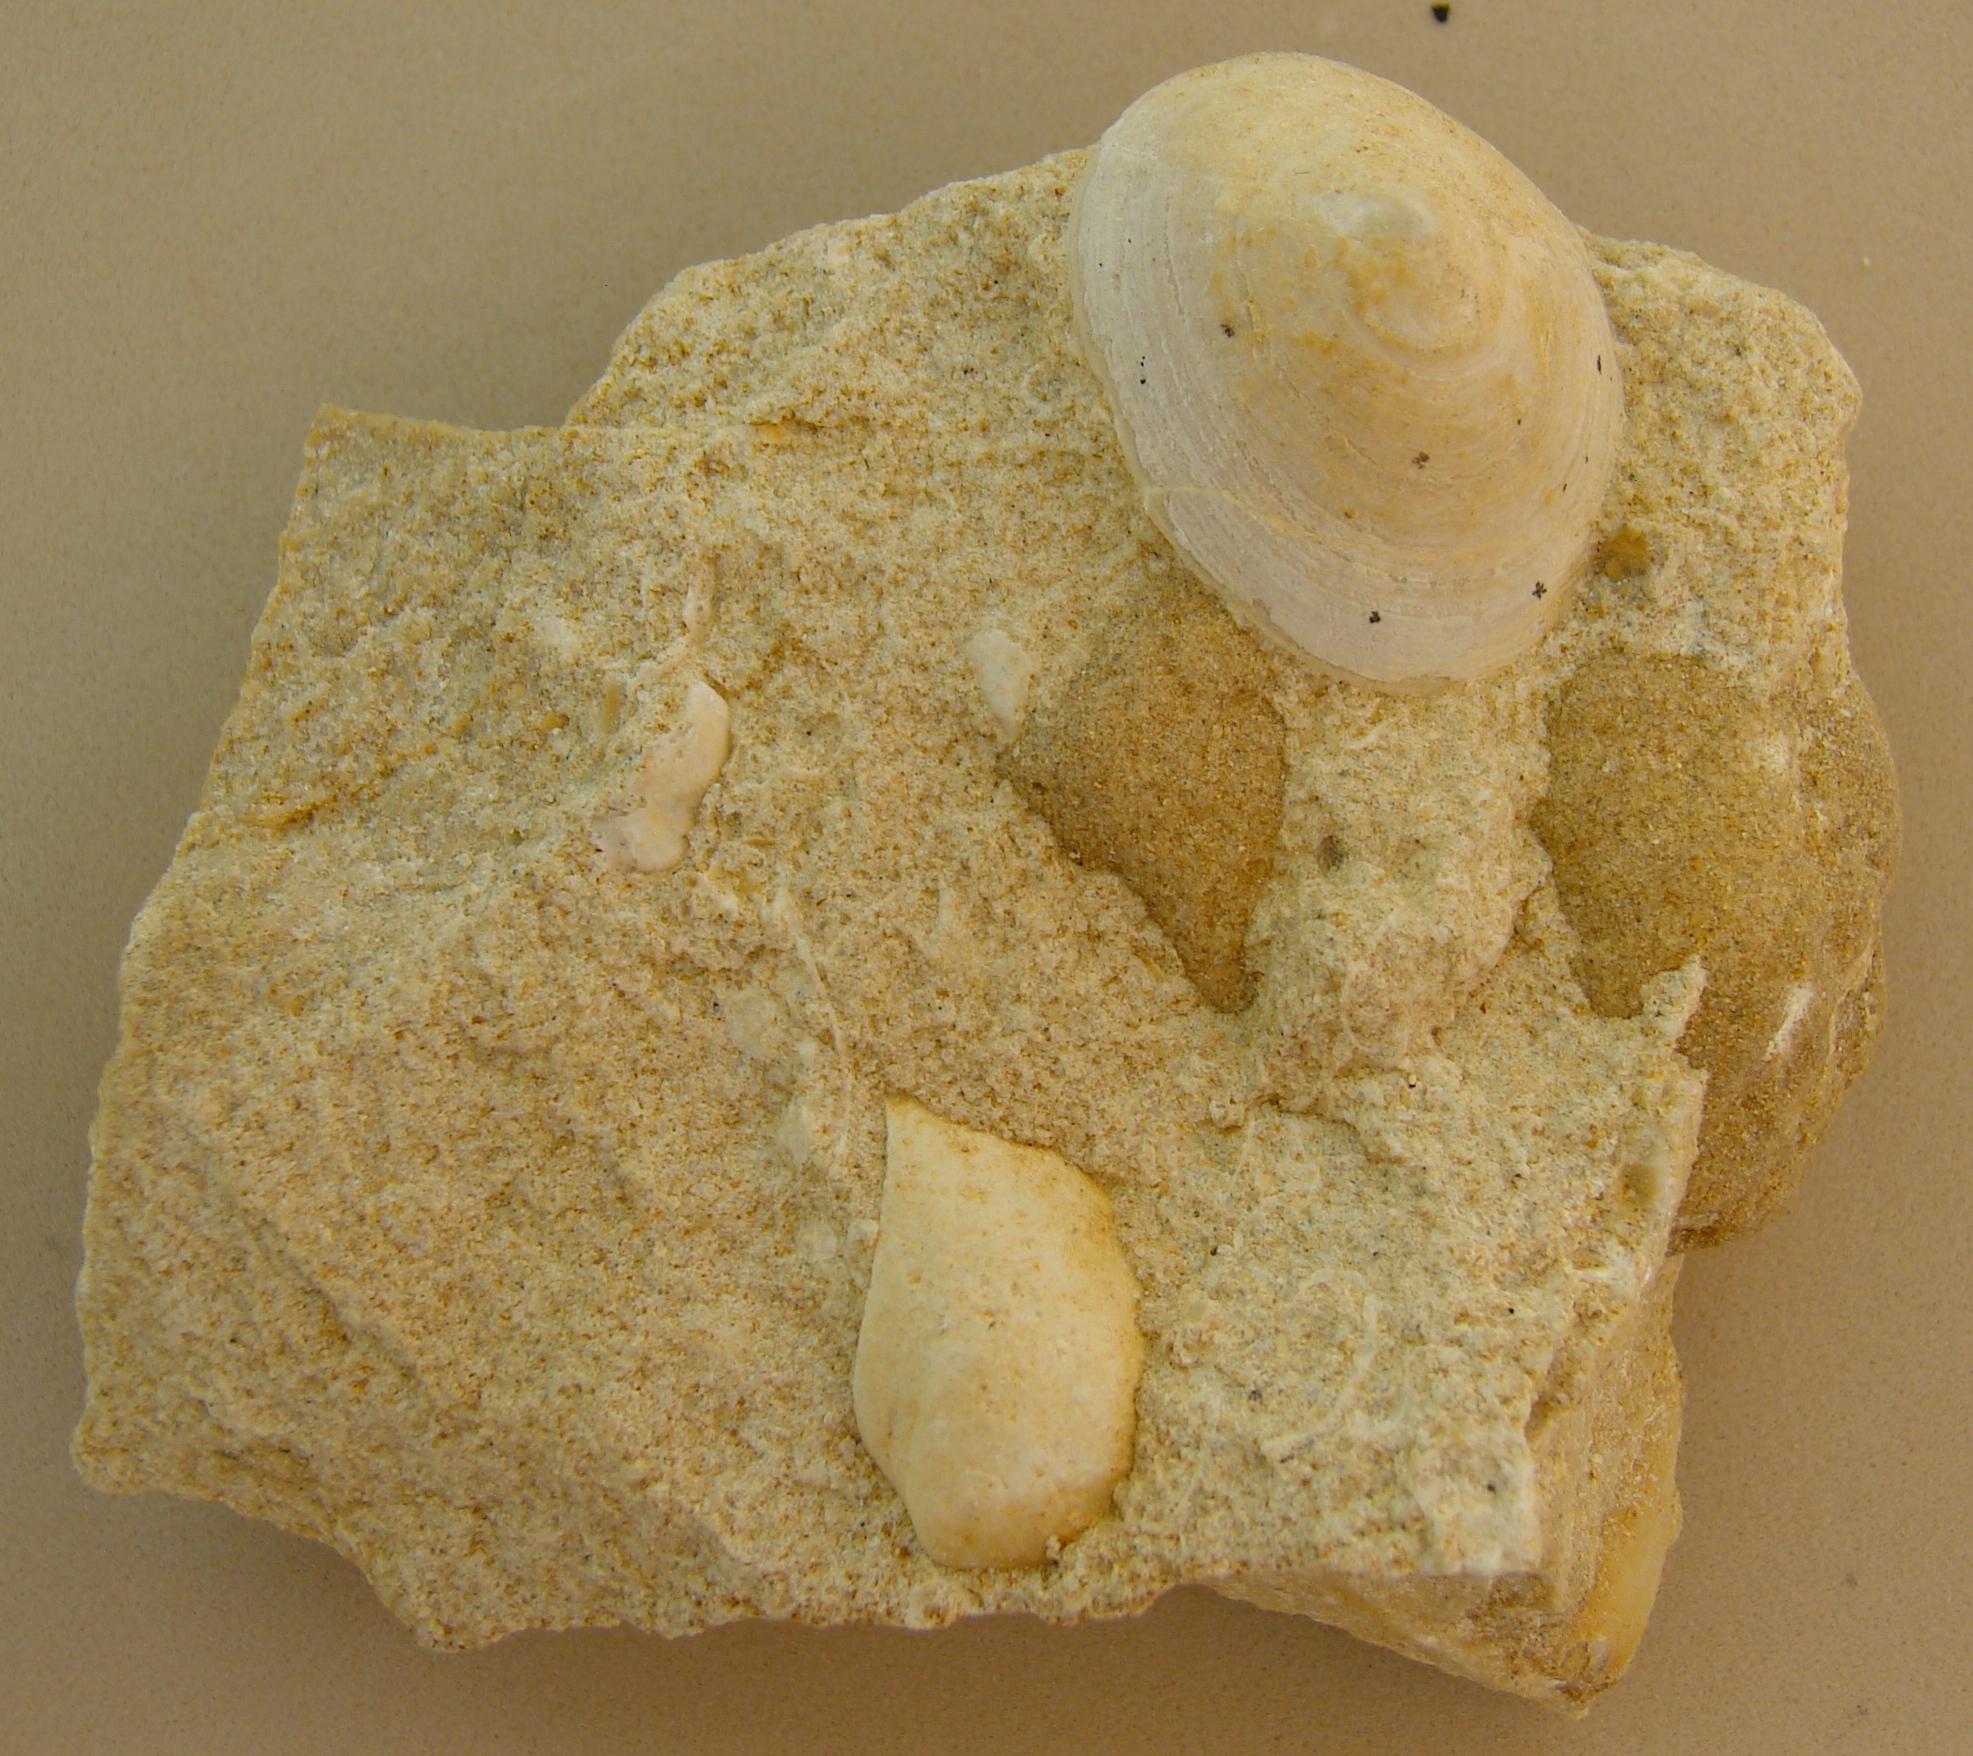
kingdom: Animalia
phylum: Mollusca
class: Gastropoda
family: Acmaeadae
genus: Scurriopsis
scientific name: Scurriopsis Patella hettangiensis
